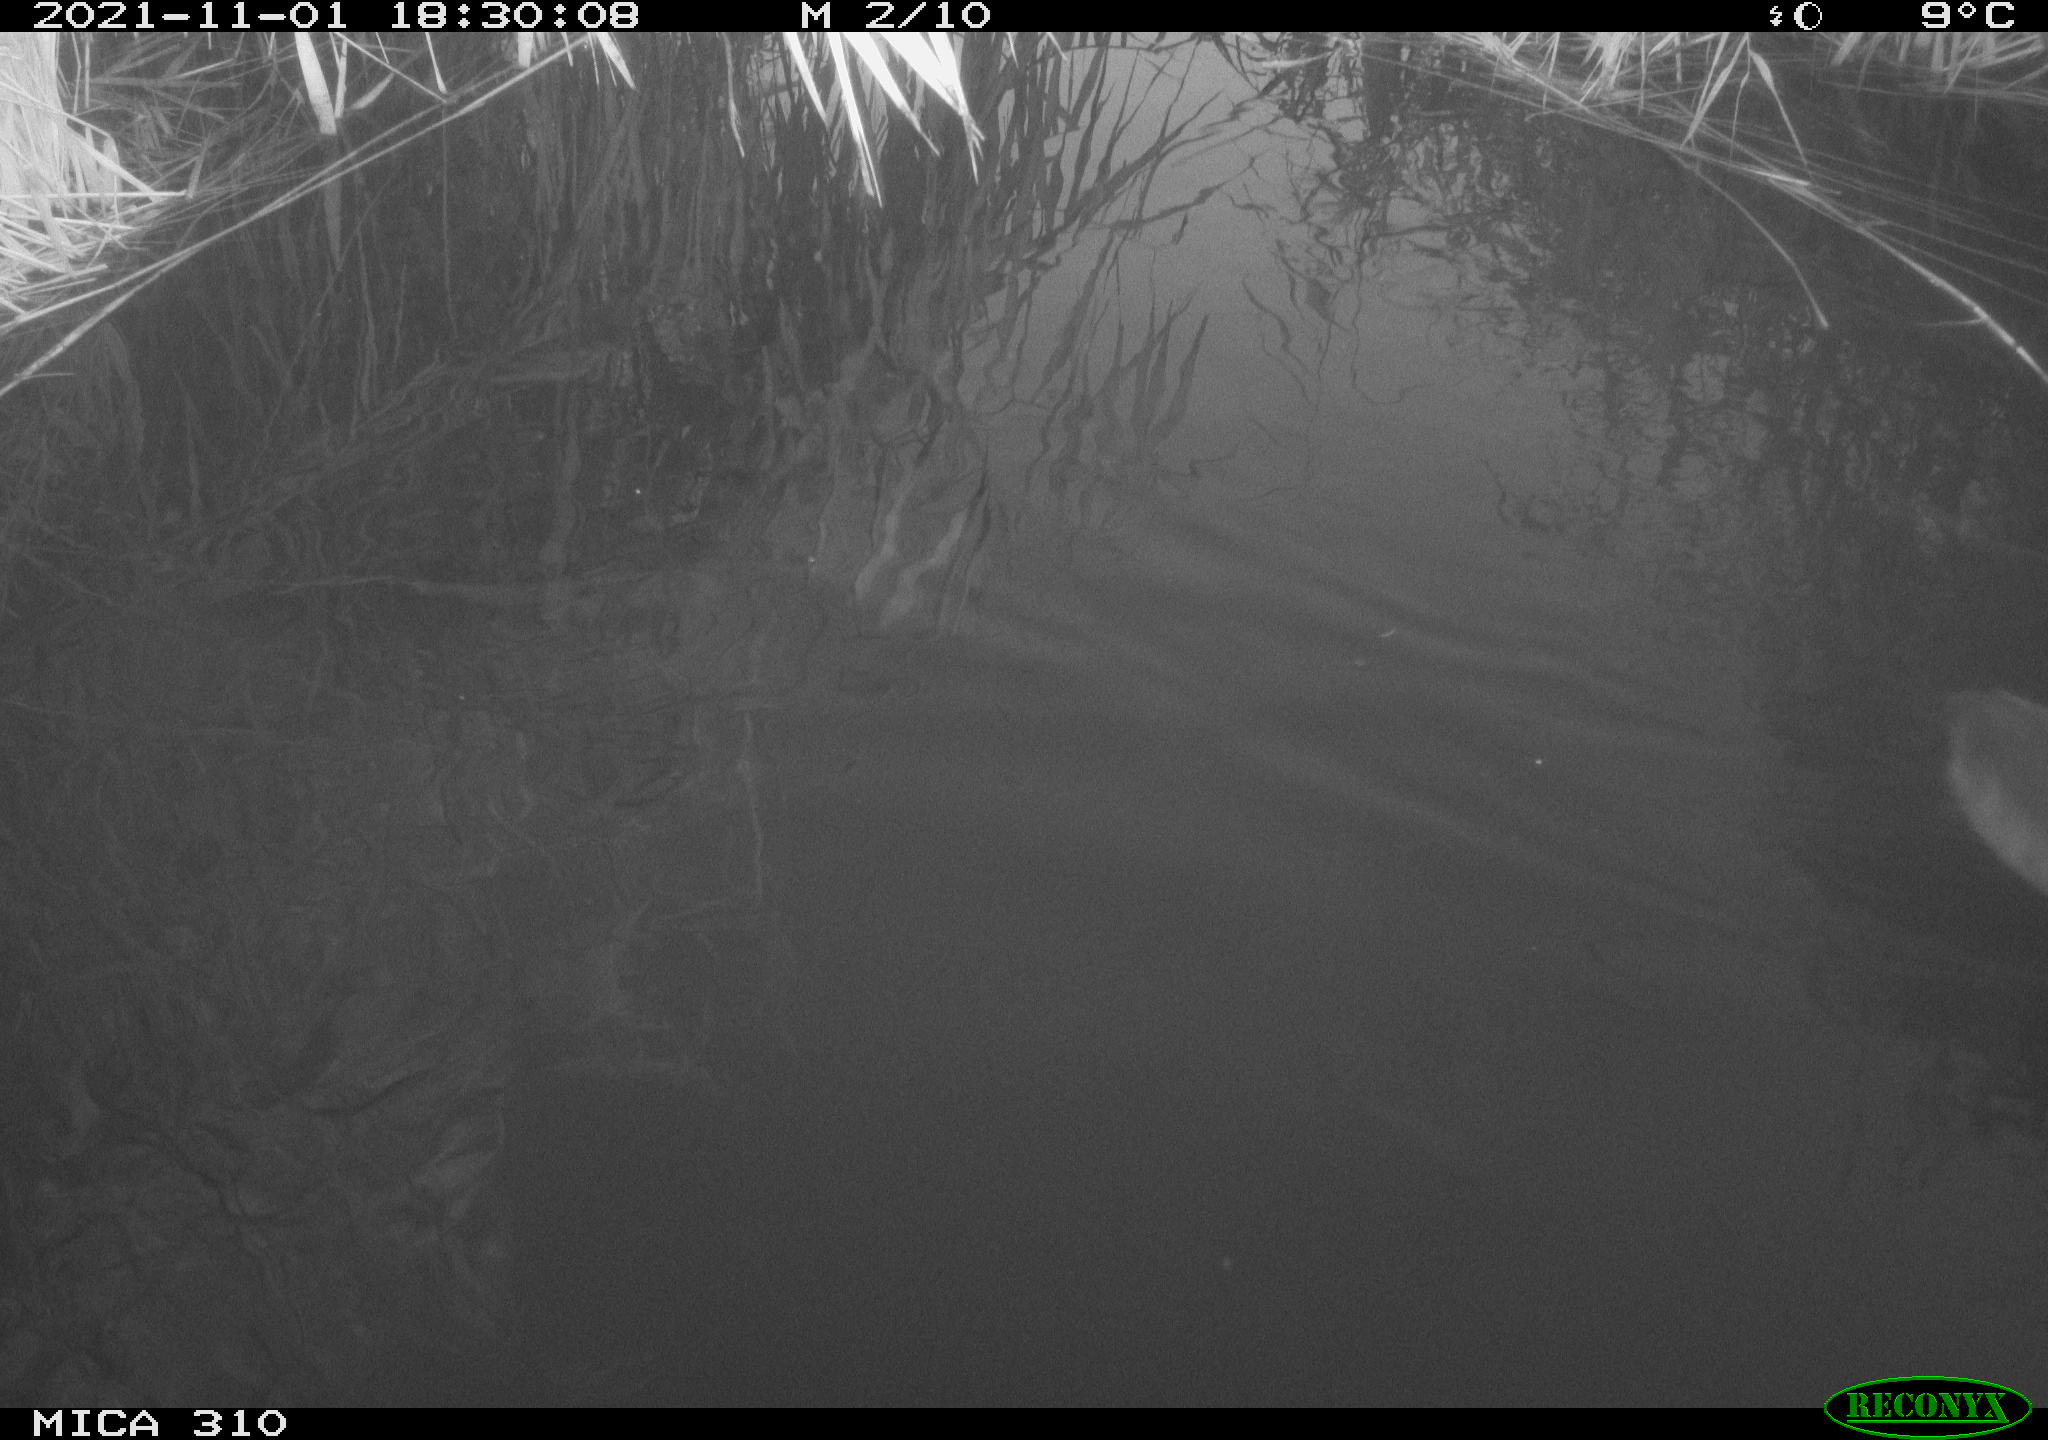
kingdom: Animalia
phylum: Chordata
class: Aves
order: Gruiformes
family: Rallidae
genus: Fulica
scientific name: Fulica atra
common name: Eurasian coot
